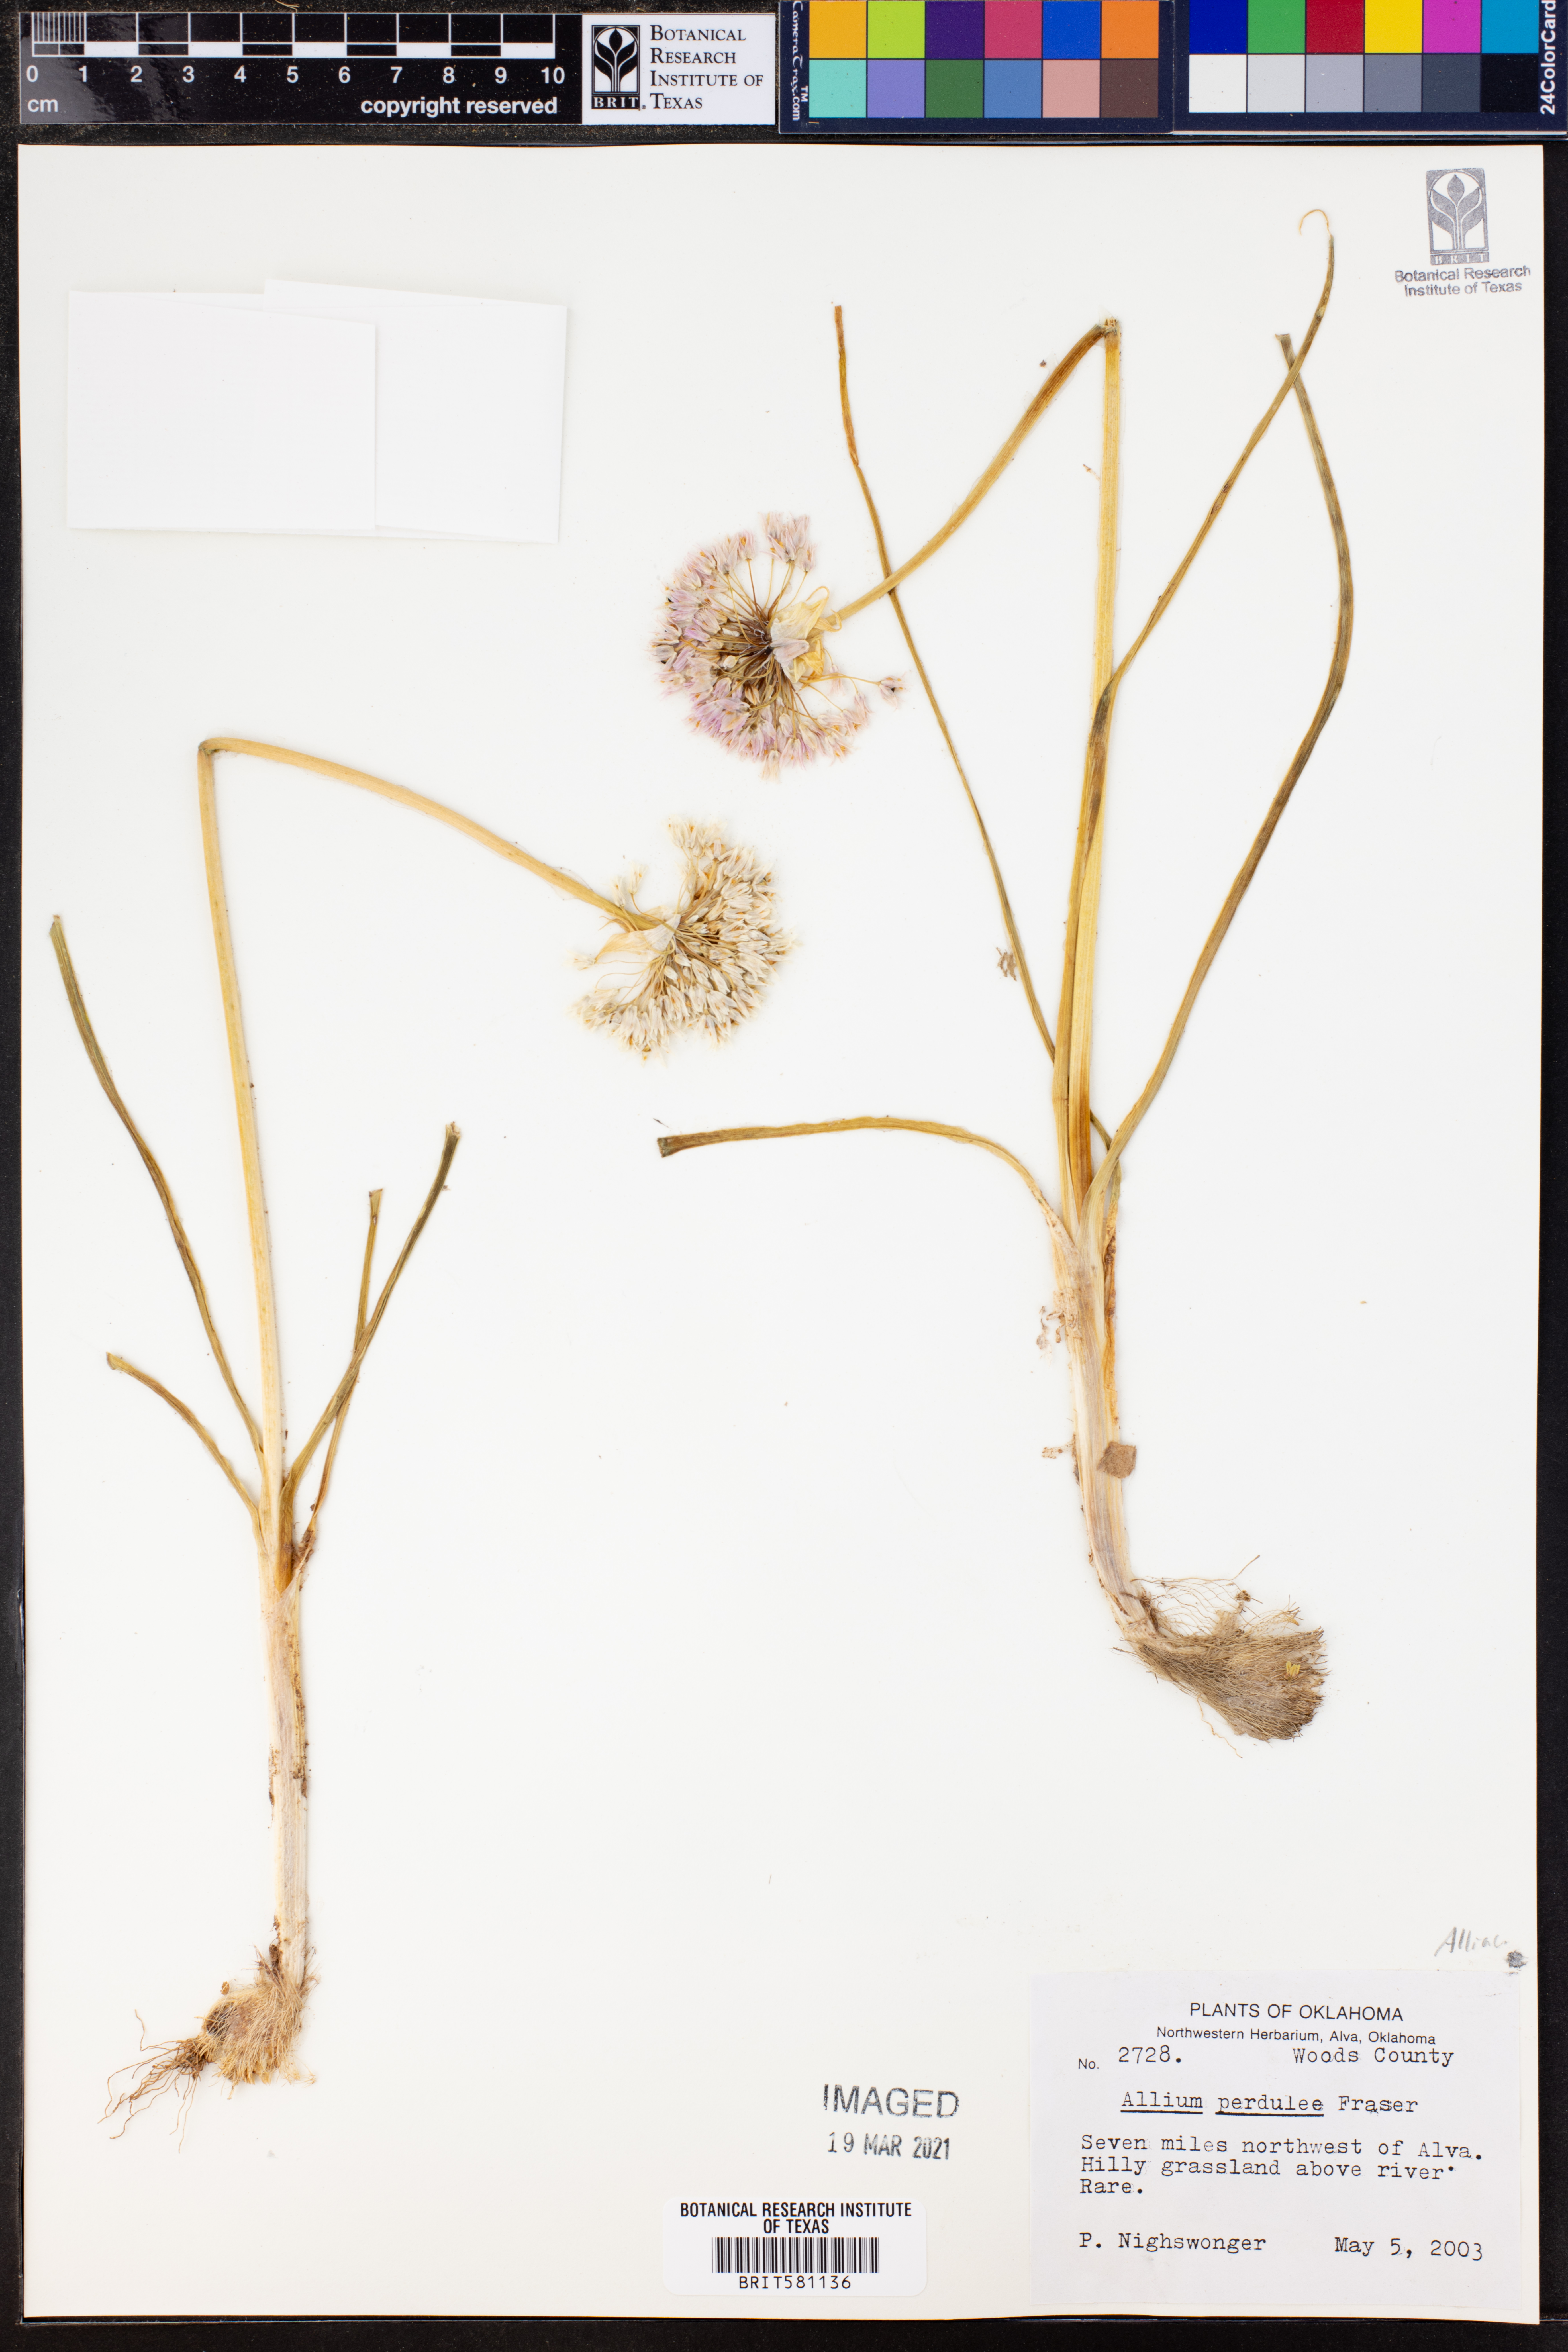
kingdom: Plantae
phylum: Tracheophyta
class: Liliopsida
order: Asparagales
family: Amaryllidaceae
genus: Allium
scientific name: Allium perdulce
